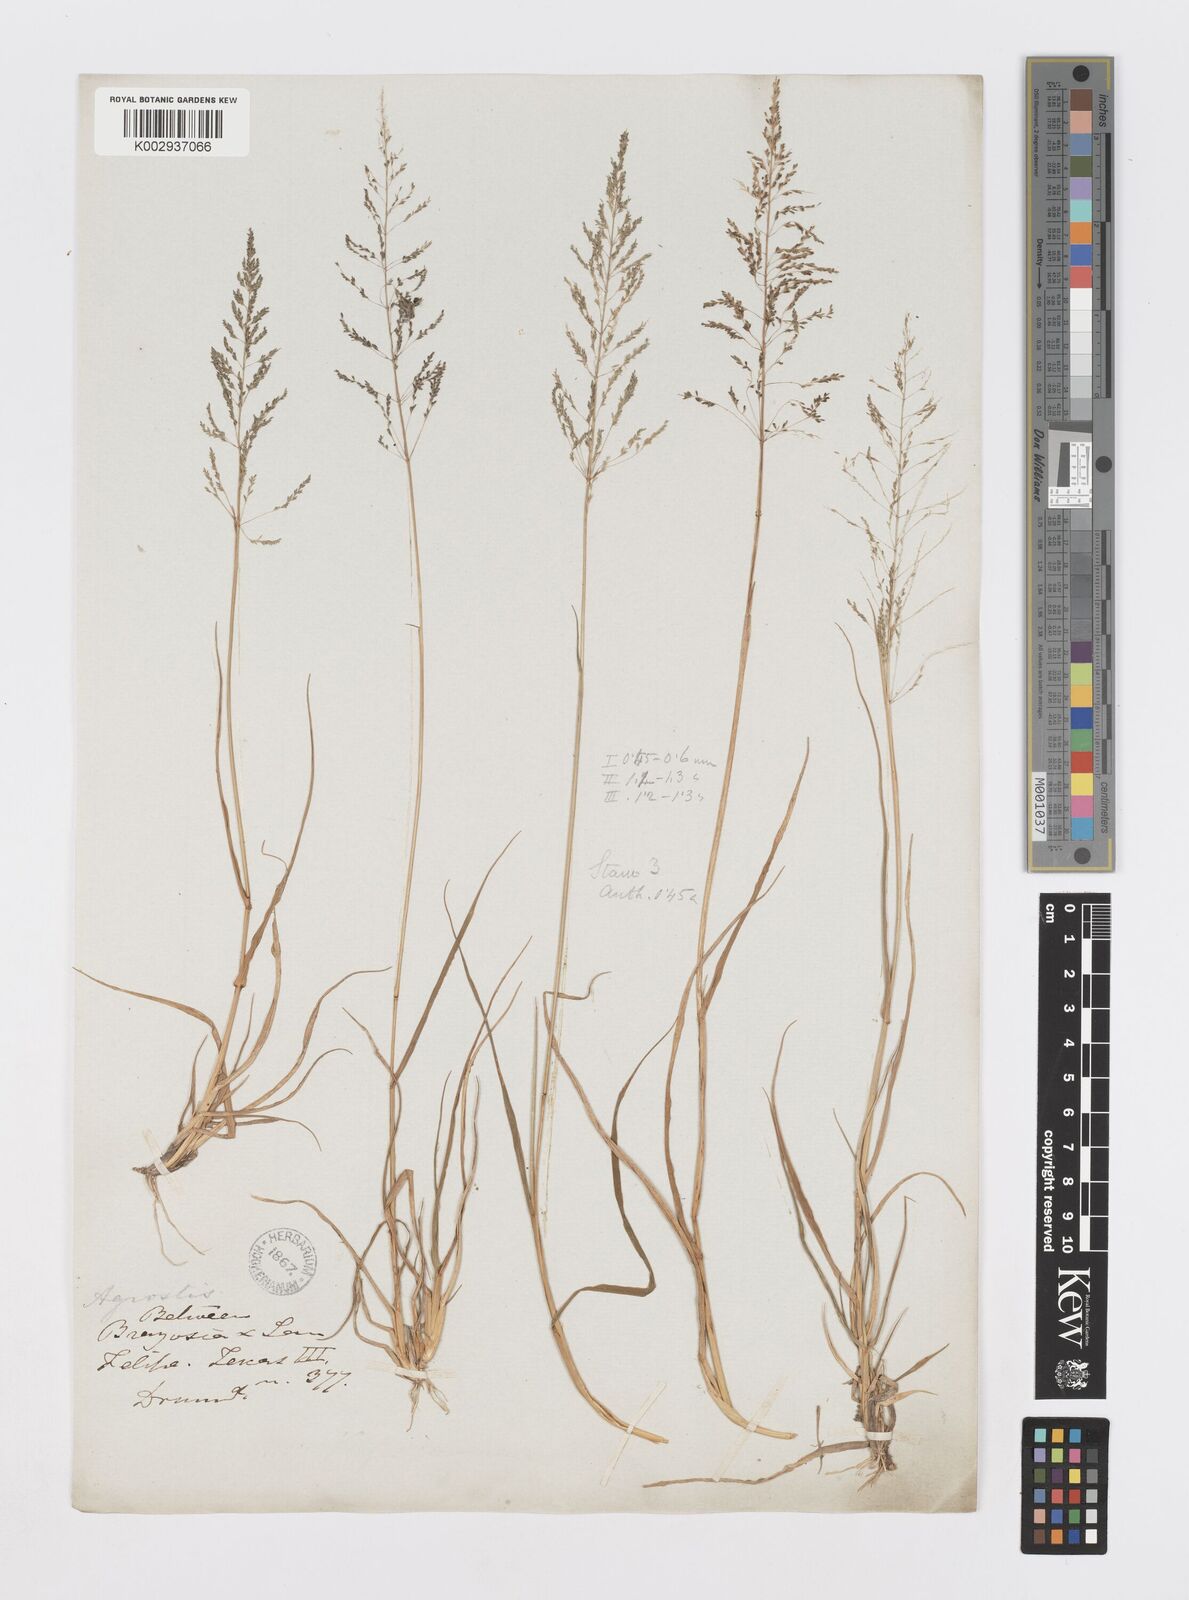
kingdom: Plantae
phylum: Tracheophyta
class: Liliopsida
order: Poales
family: Poaceae
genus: Sporobolus
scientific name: Sporobolus pyramidatus
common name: Whorled dropseed
